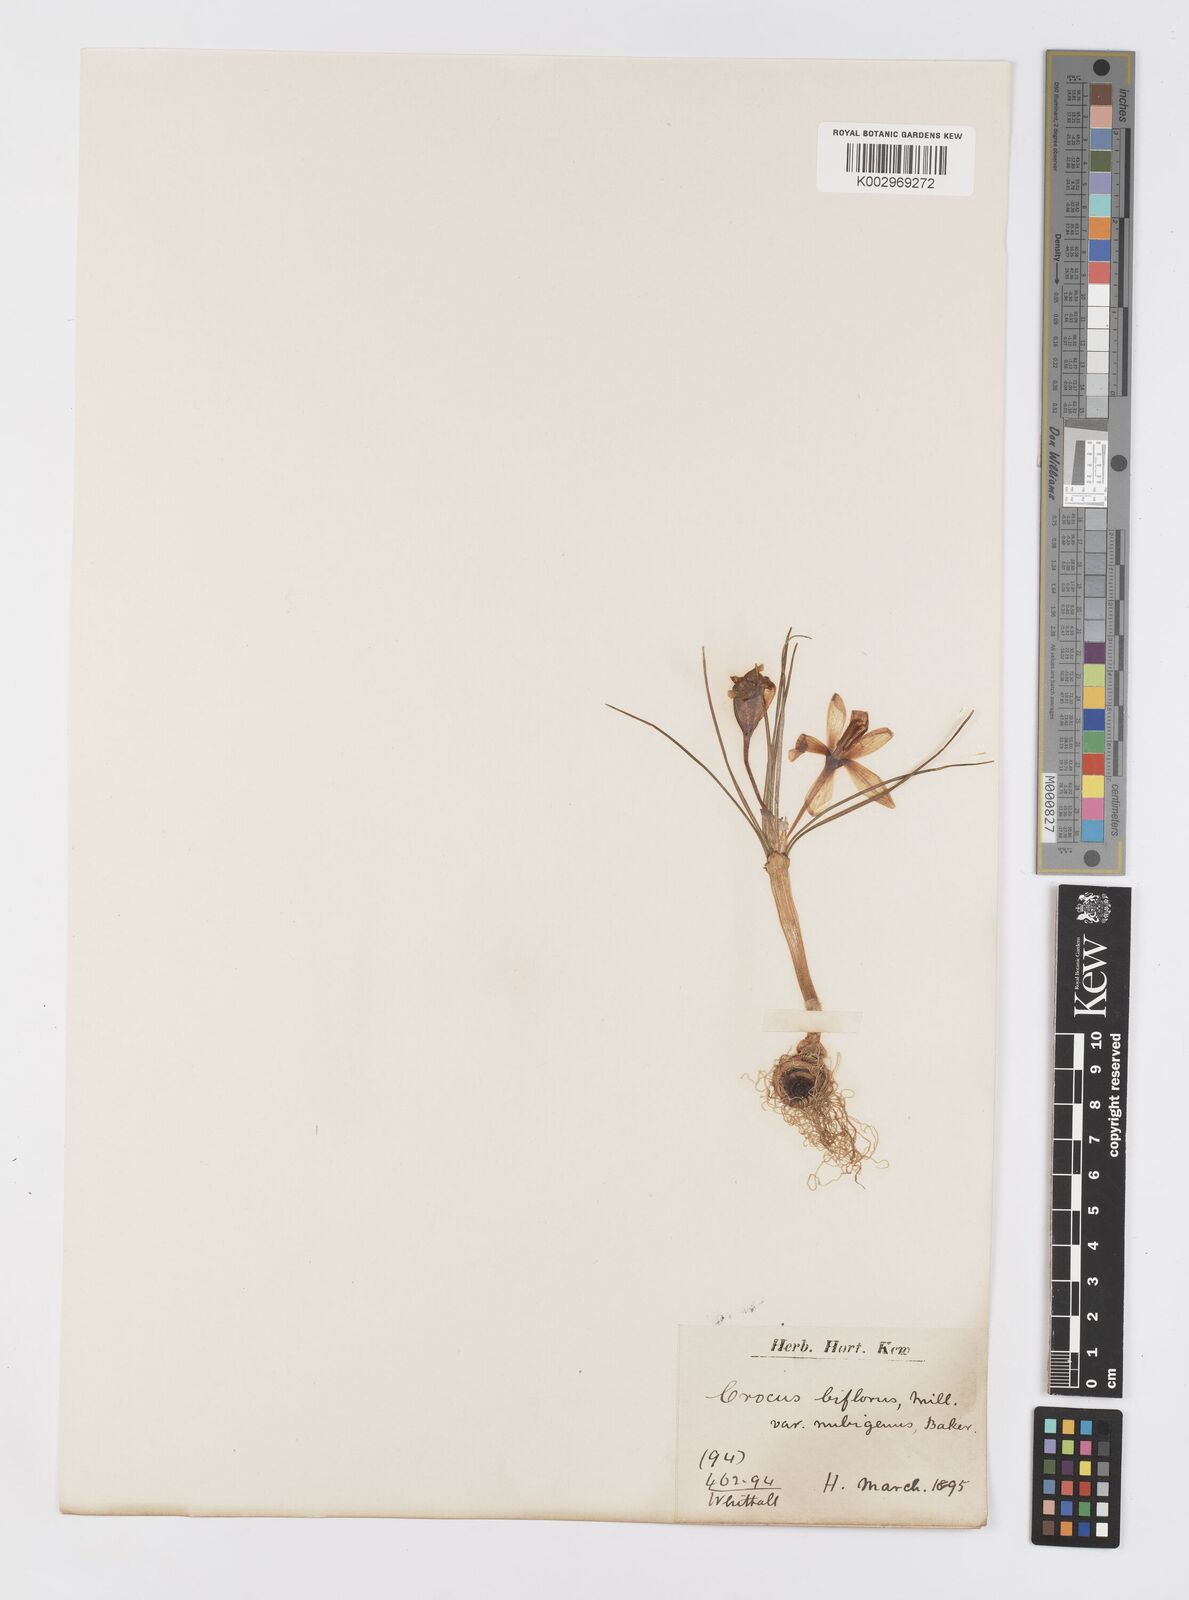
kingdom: Plantae
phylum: Tracheophyta
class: Liliopsida
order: Asparagales
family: Iridaceae
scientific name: Iridaceae
